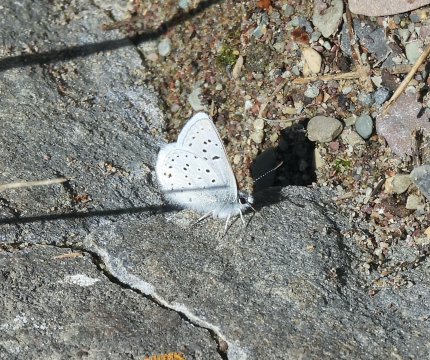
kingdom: Animalia
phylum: Arthropoda
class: Insecta
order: Lepidoptera
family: Lycaenidae
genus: Plebejus
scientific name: Plebejus saepiolus
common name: Greenish Blue
